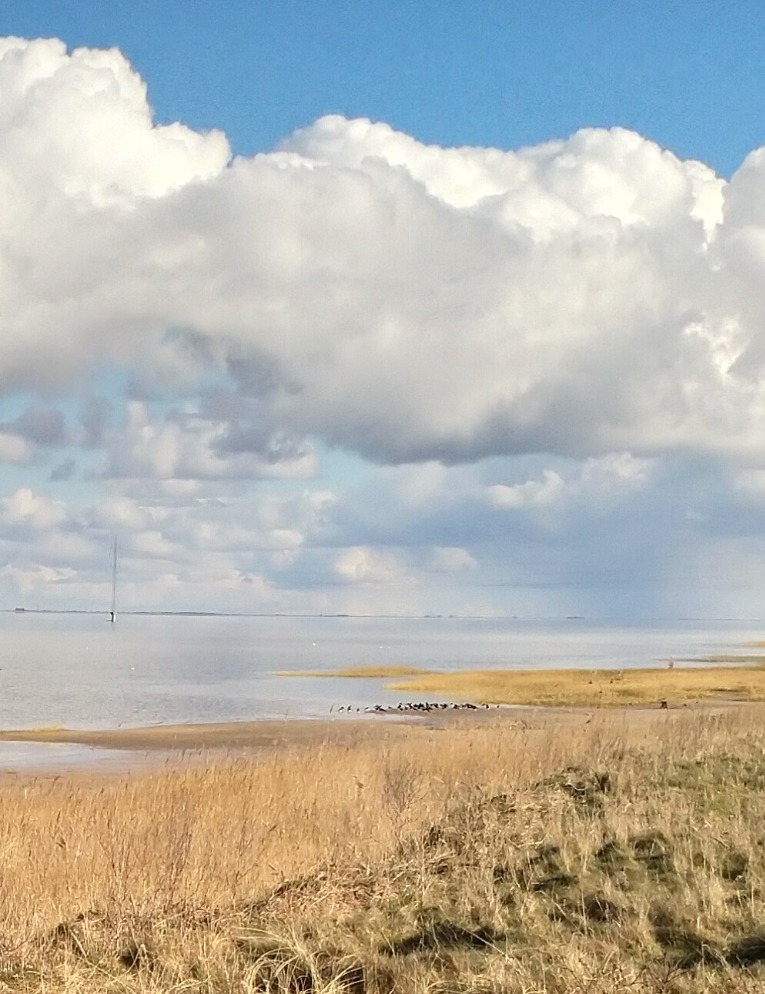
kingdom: Animalia
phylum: Chordata
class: Aves
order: Charadriiformes
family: Haematopodidae
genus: Haematopus
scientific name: Haematopus ostralegus
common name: Strandskade
